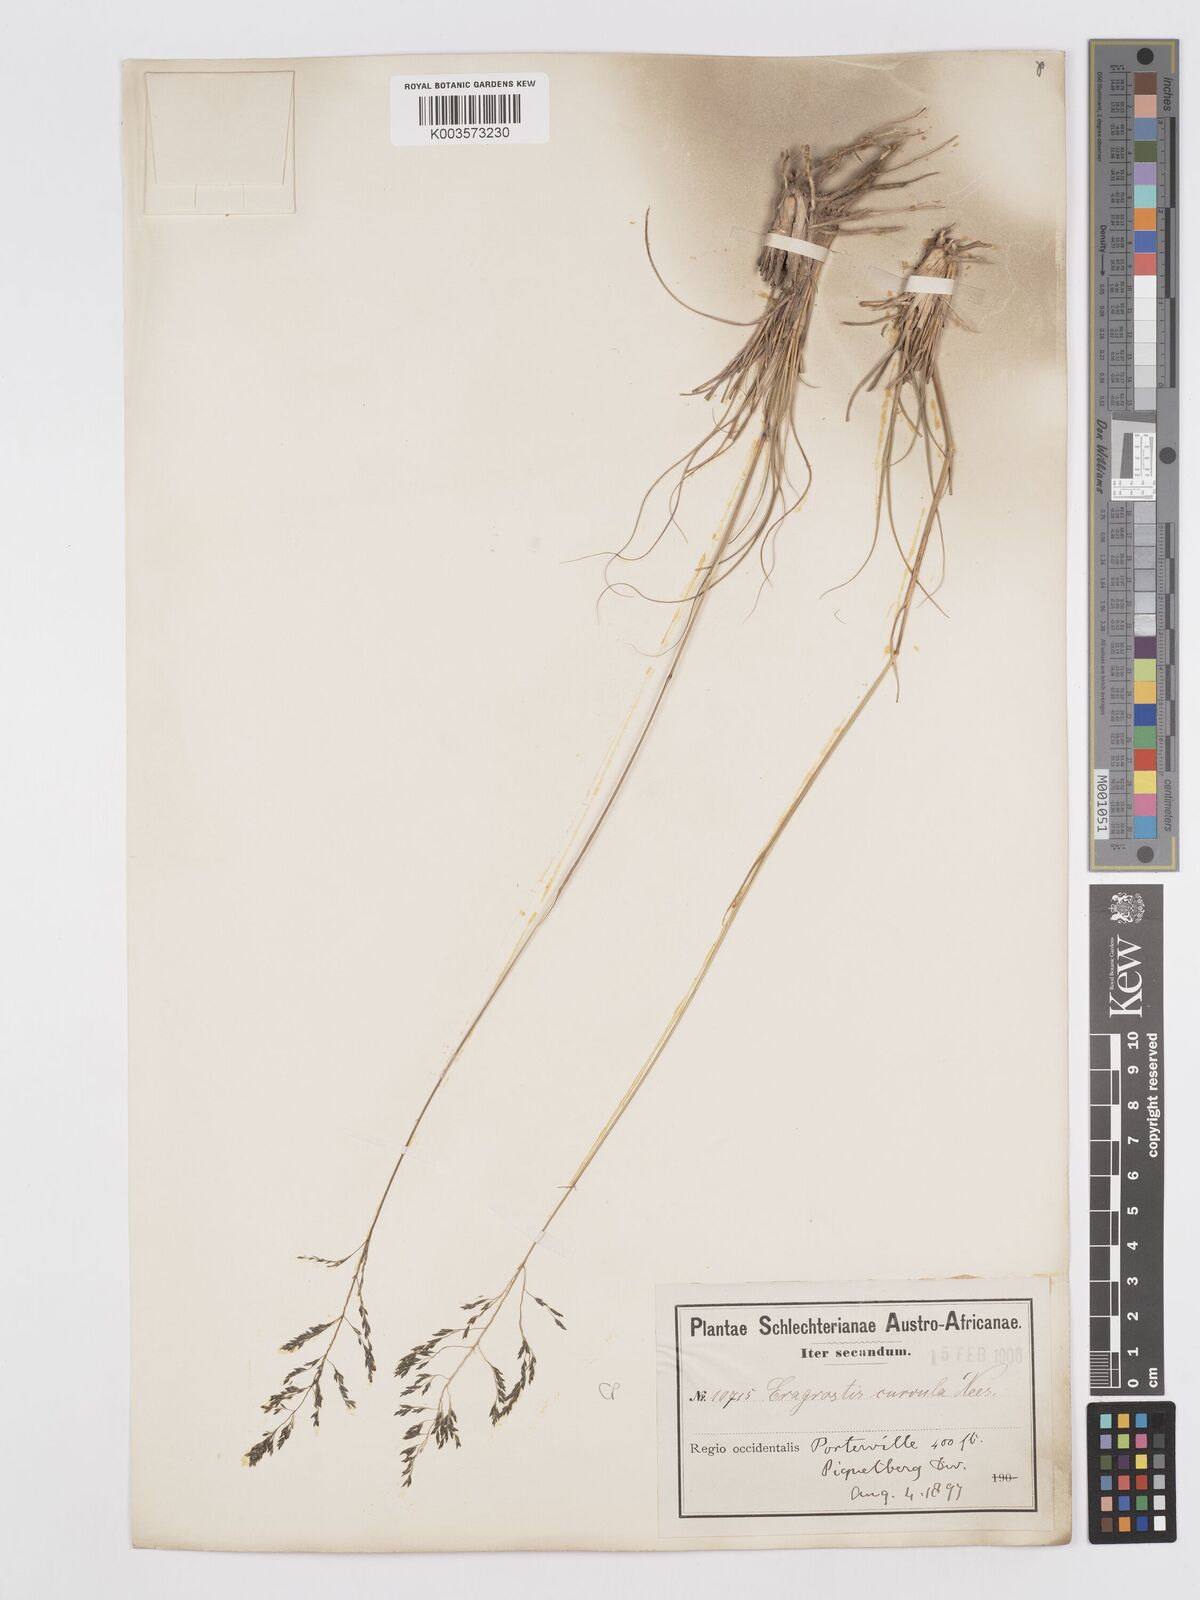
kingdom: Plantae
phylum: Tracheophyta
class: Liliopsida
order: Poales
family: Poaceae
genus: Eragrostis
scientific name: Eragrostis curvula
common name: African love-grass
